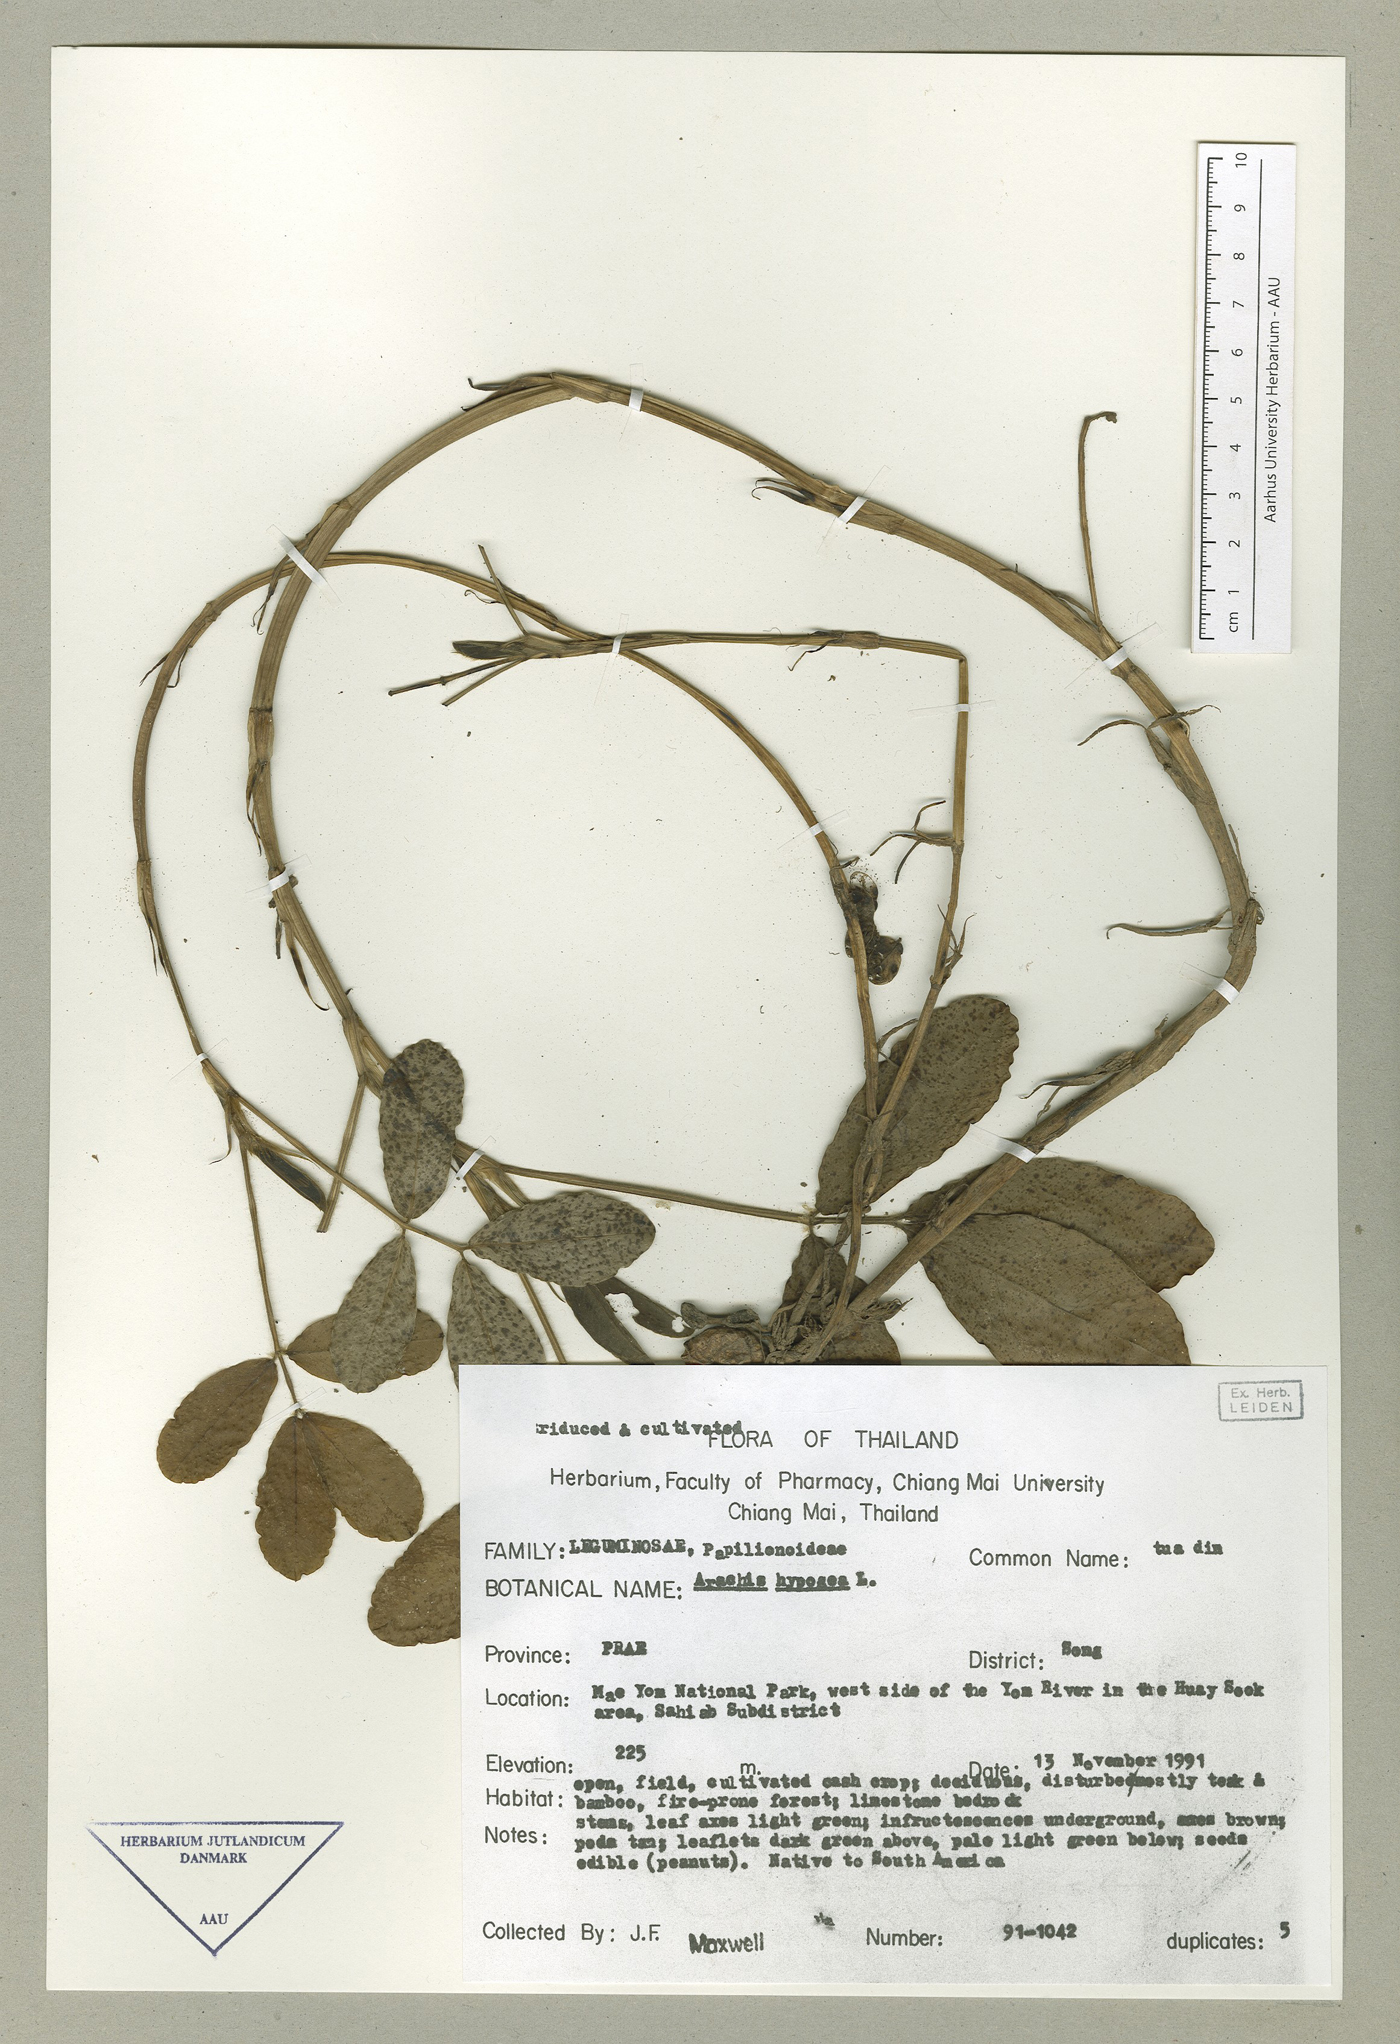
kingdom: Plantae
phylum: Tracheophyta
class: Magnoliopsida
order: Fabales
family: Fabaceae
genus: Arachis
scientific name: Arachis hypogaea
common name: Peanut
